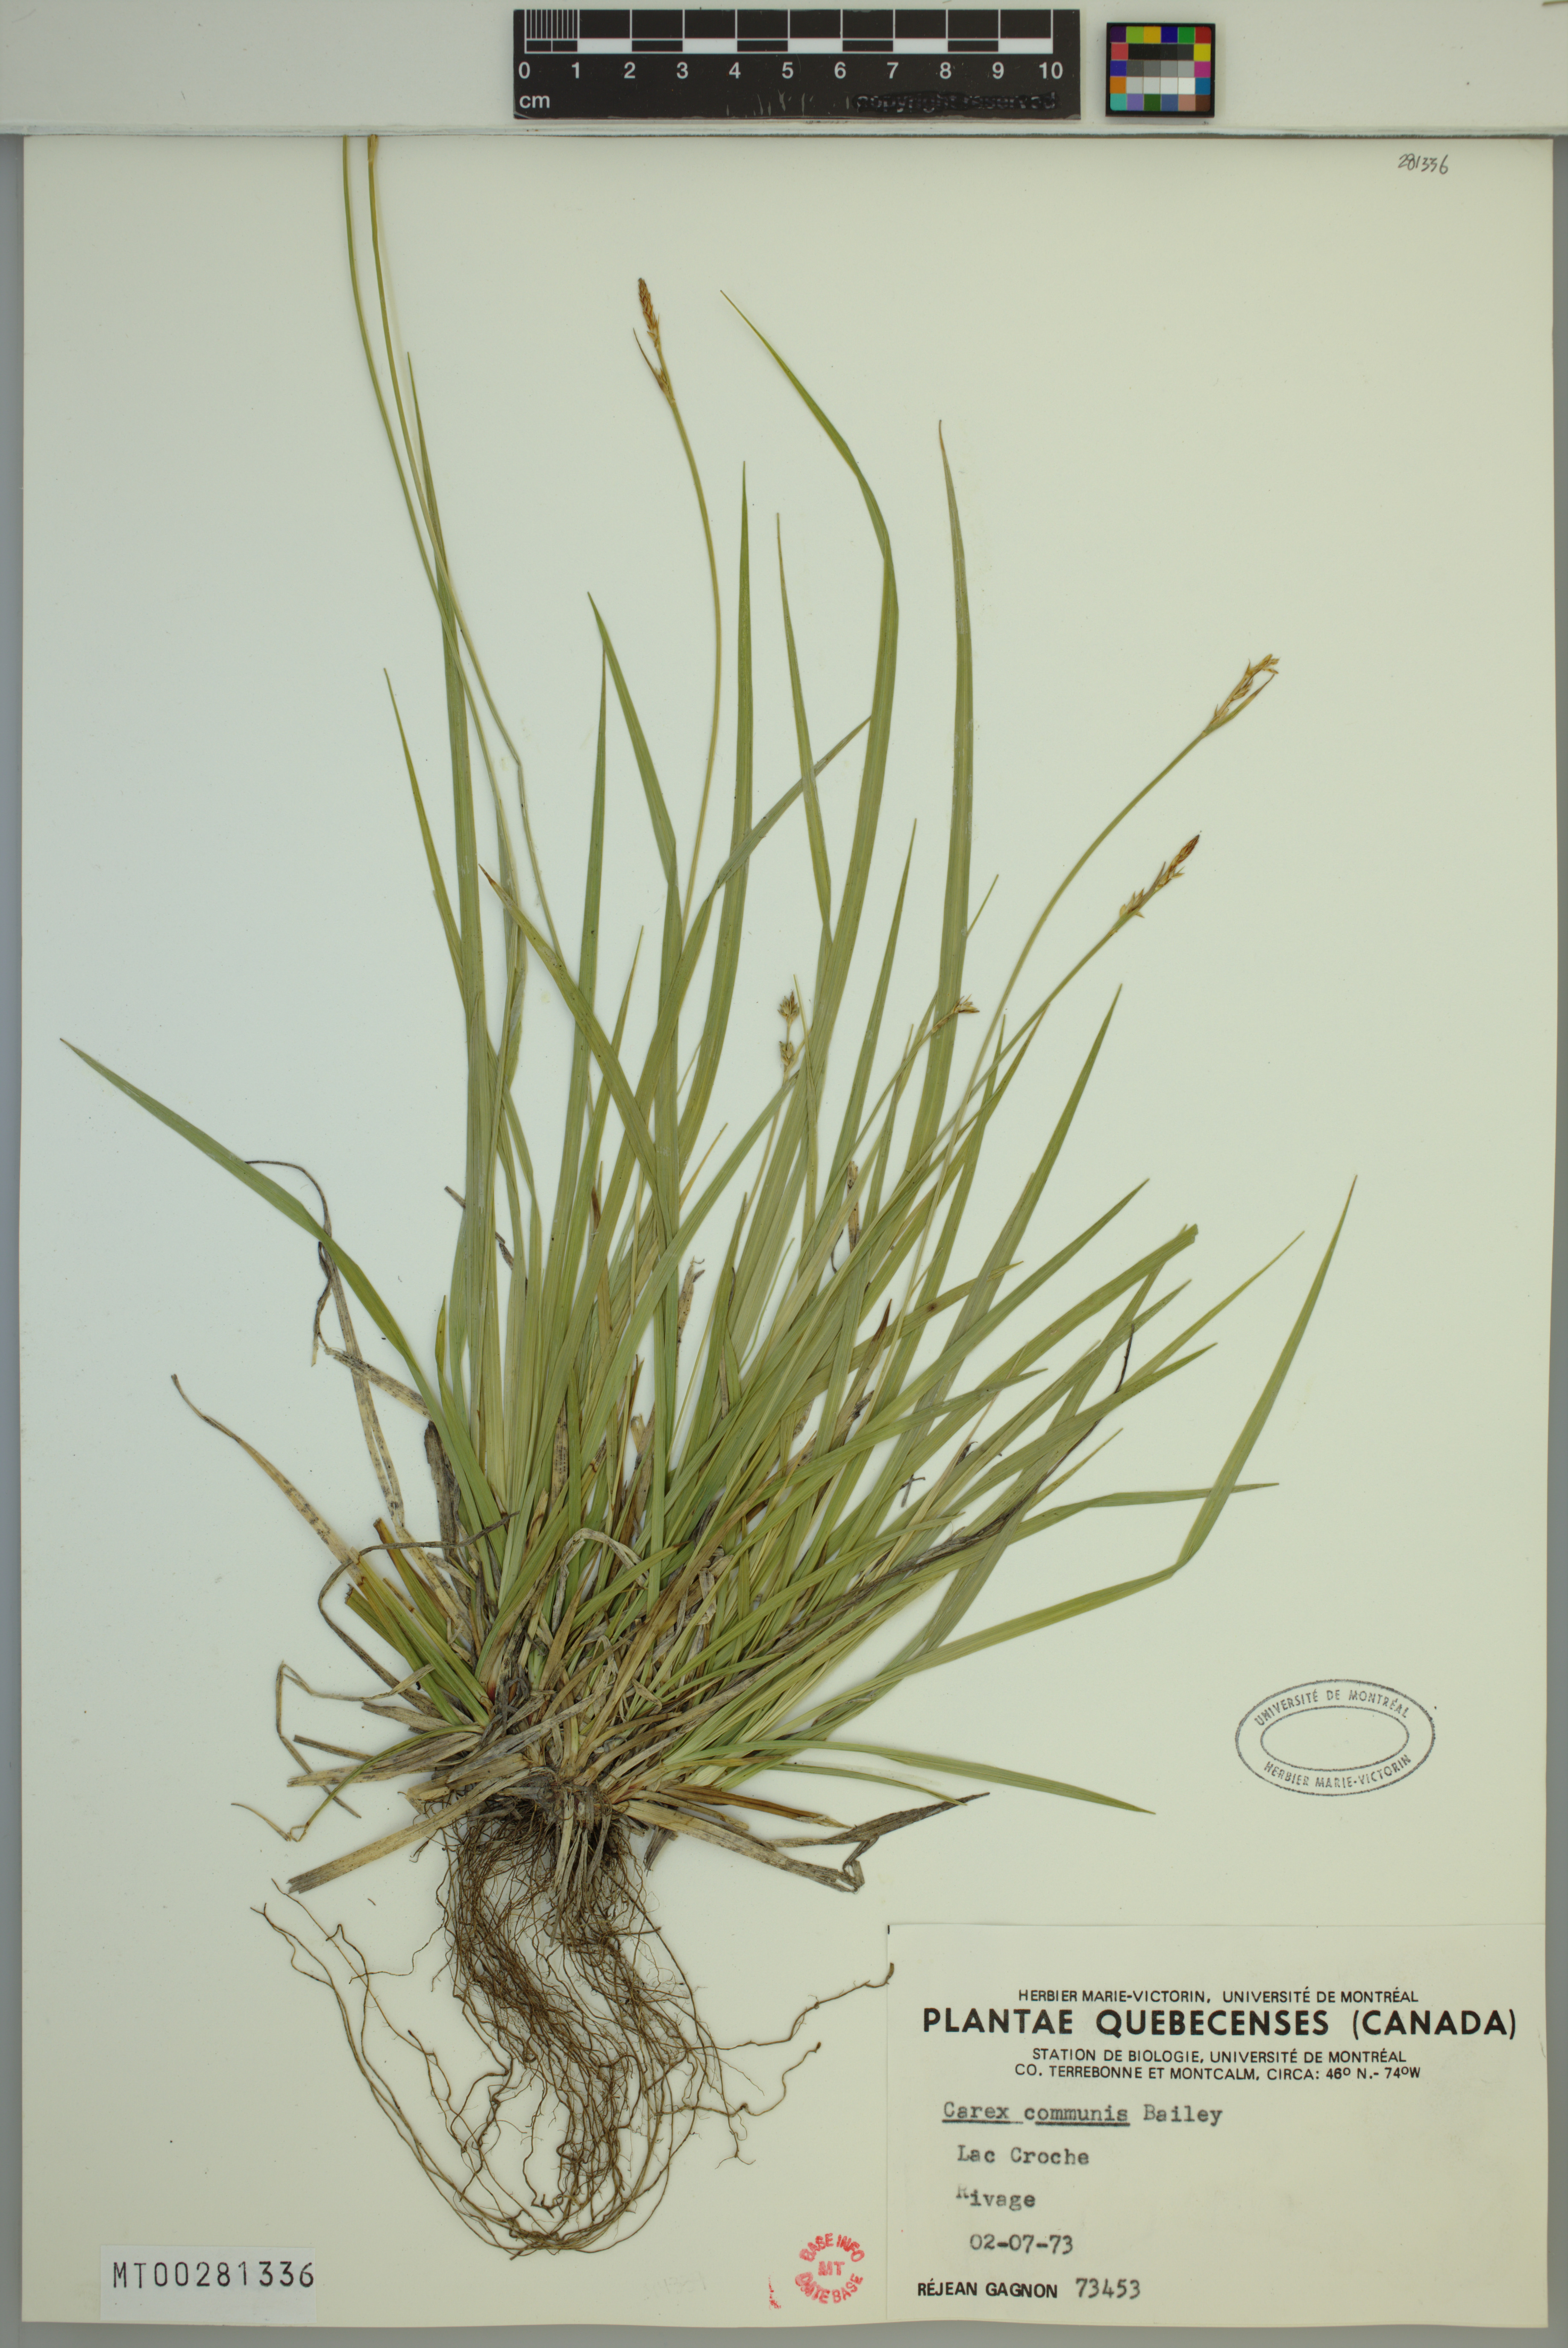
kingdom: Plantae
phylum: Tracheophyta
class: Liliopsida
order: Poales
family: Cyperaceae
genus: Carex
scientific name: Carex communis
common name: Colonial oak sedge
